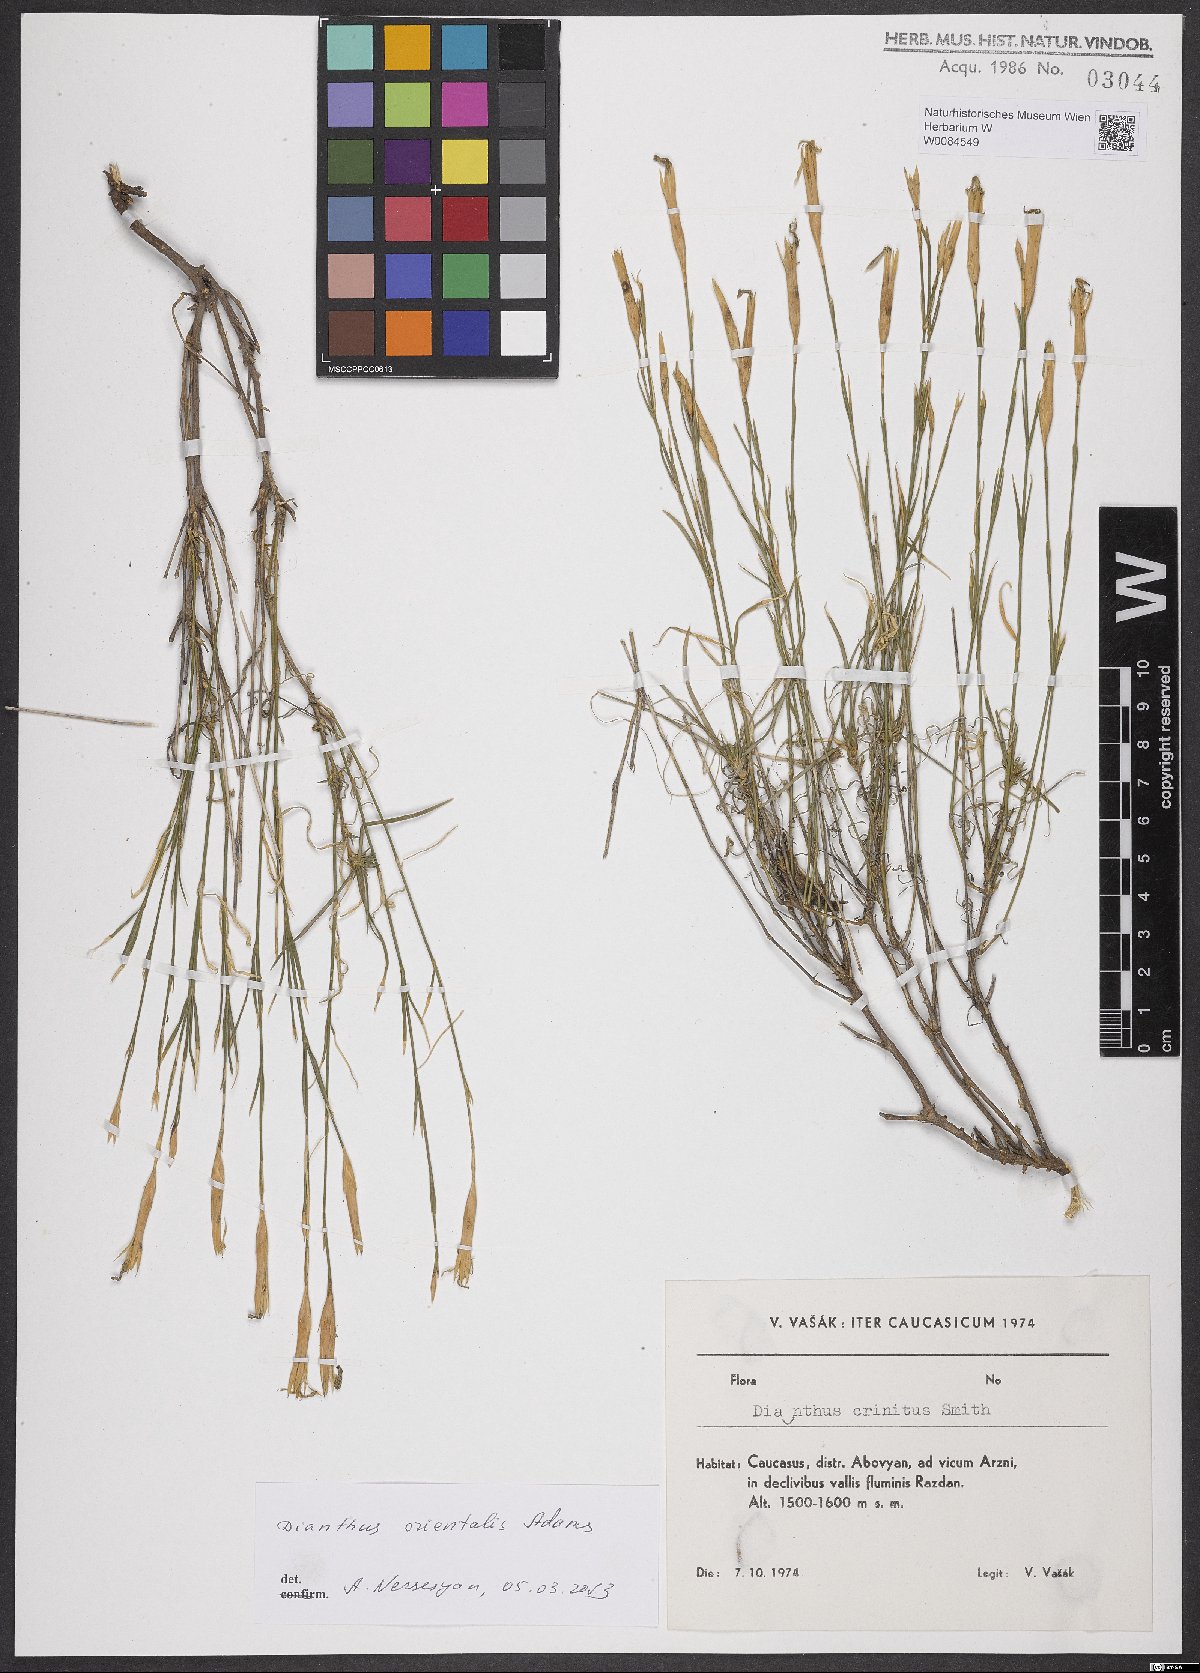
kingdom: Plantae
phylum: Tracheophyta
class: Magnoliopsida
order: Caryophyllales
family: Caryophyllaceae
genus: Dianthus
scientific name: Dianthus orientalis
